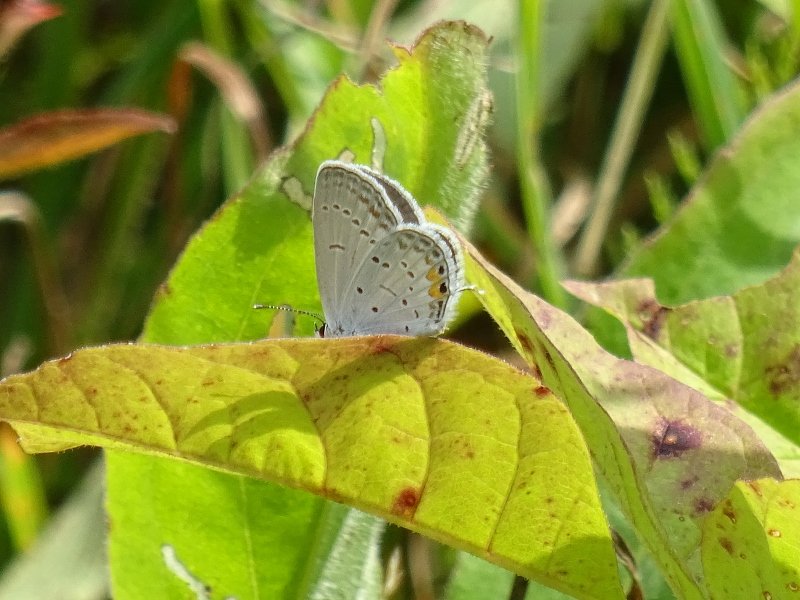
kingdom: Animalia
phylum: Arthropoda
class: Insecta
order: Lepidoptera
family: Lycaenidae
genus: Elkalyce
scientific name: Elkalyce comyntas
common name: Eastern Tailed-Blue
